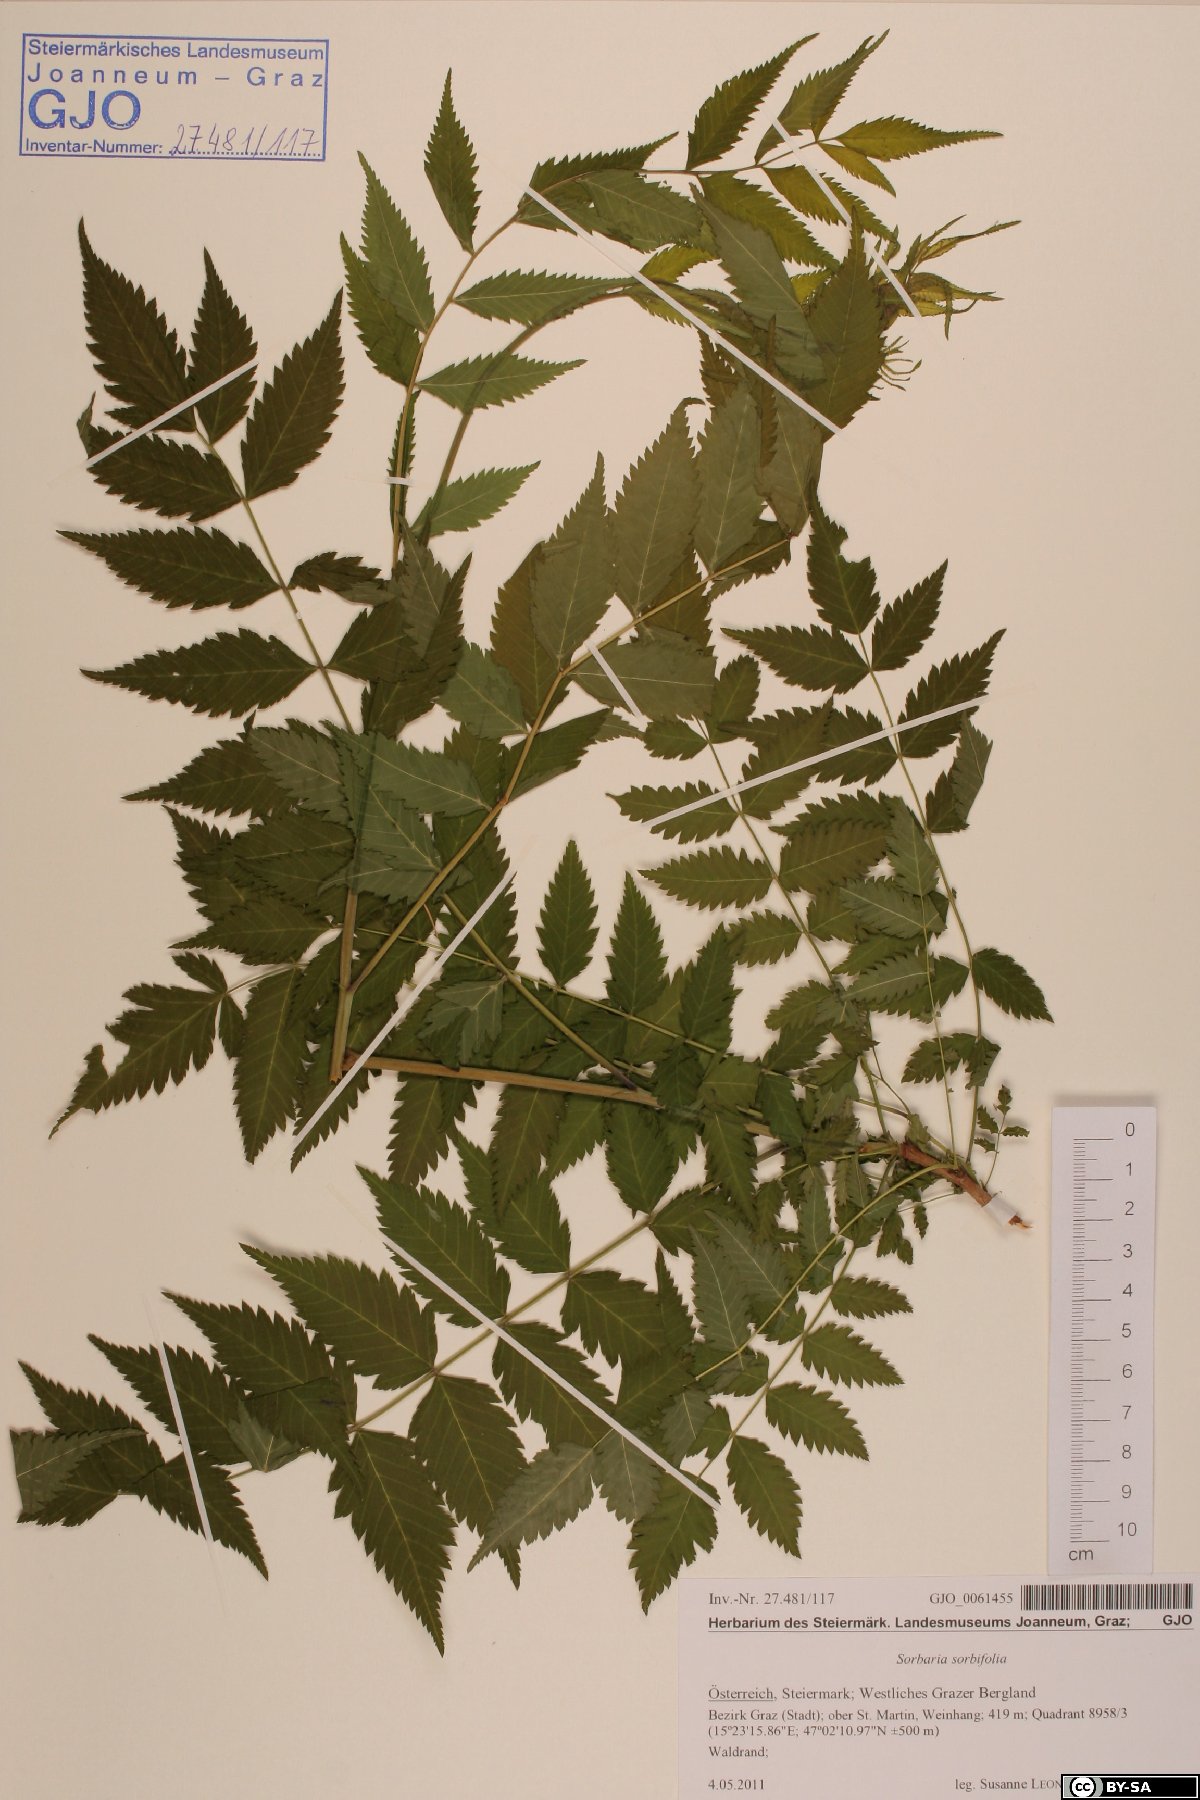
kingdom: Plantae
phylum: Tracheophyta
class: Magnoliopsida
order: Rosales
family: Rosaceae
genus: Sorbaria
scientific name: Sorbaria sorbifolia
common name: False spiraea
